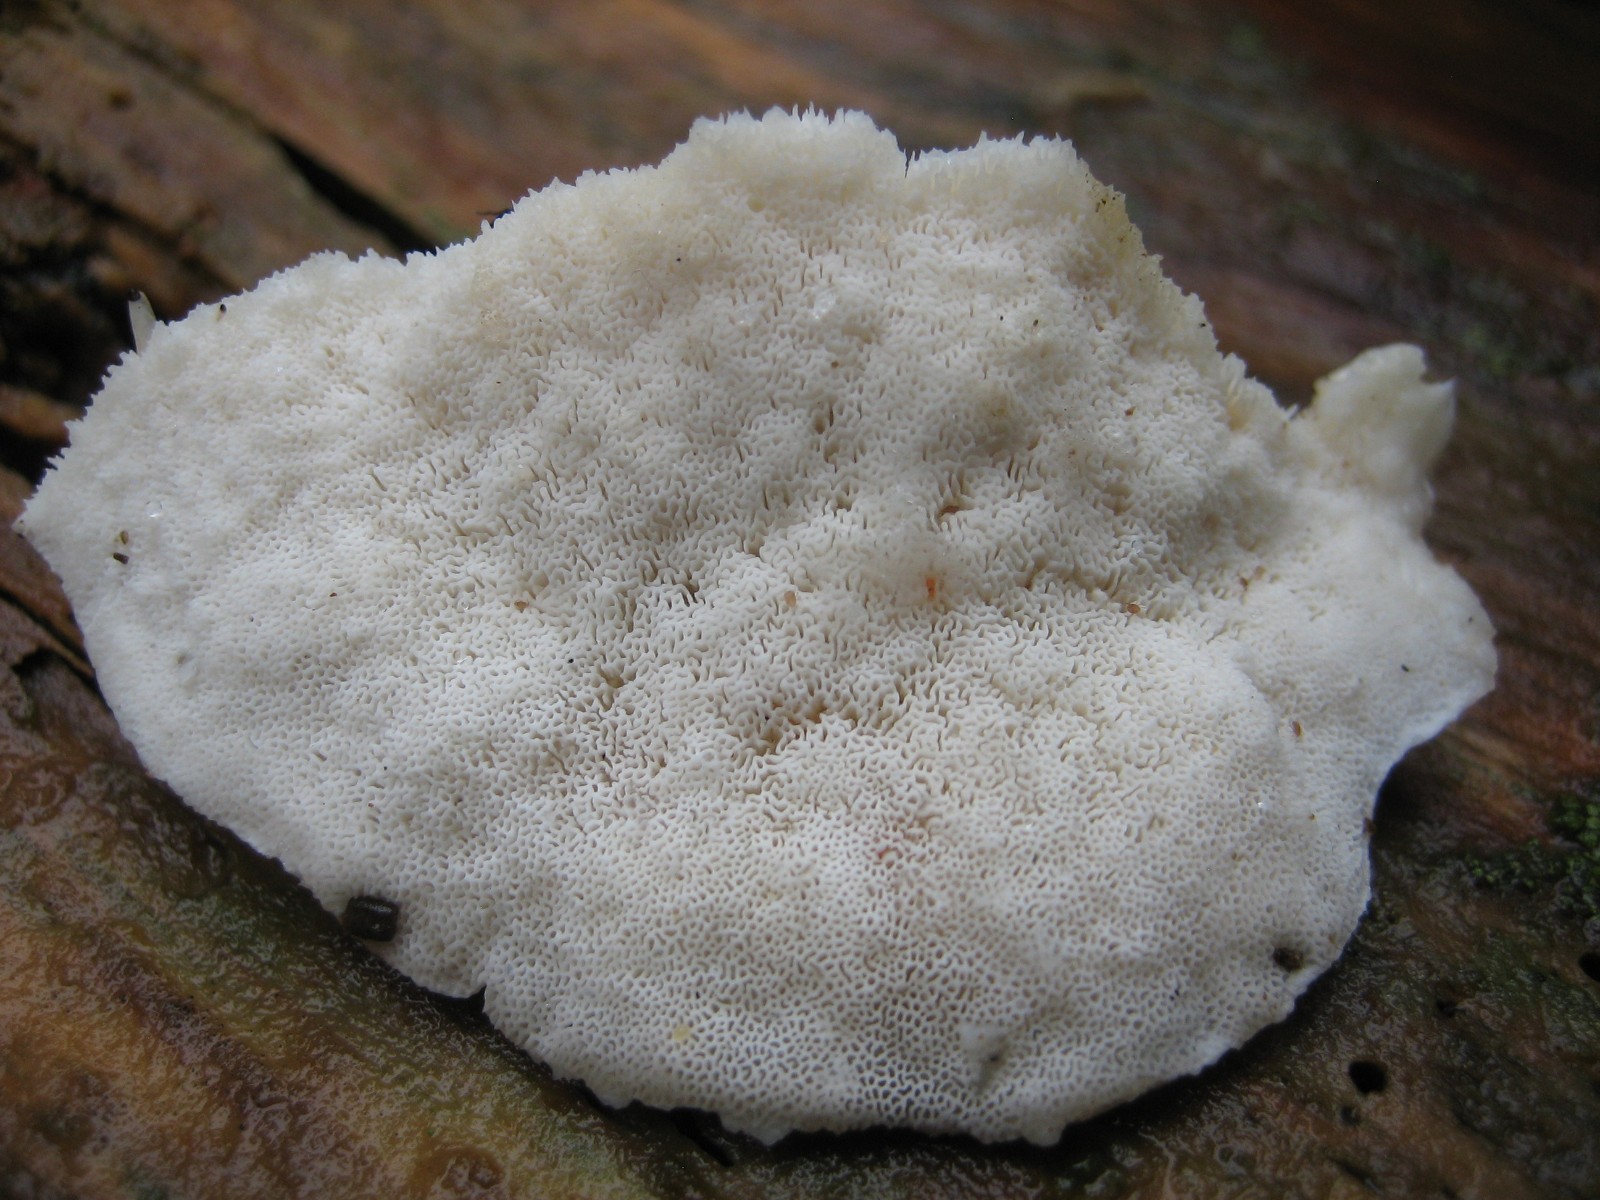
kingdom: Fungi
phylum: Basidiomycota
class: Agaricomycetes
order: Polyporales
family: Dacryobolaceae
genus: Postia
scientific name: Postia
